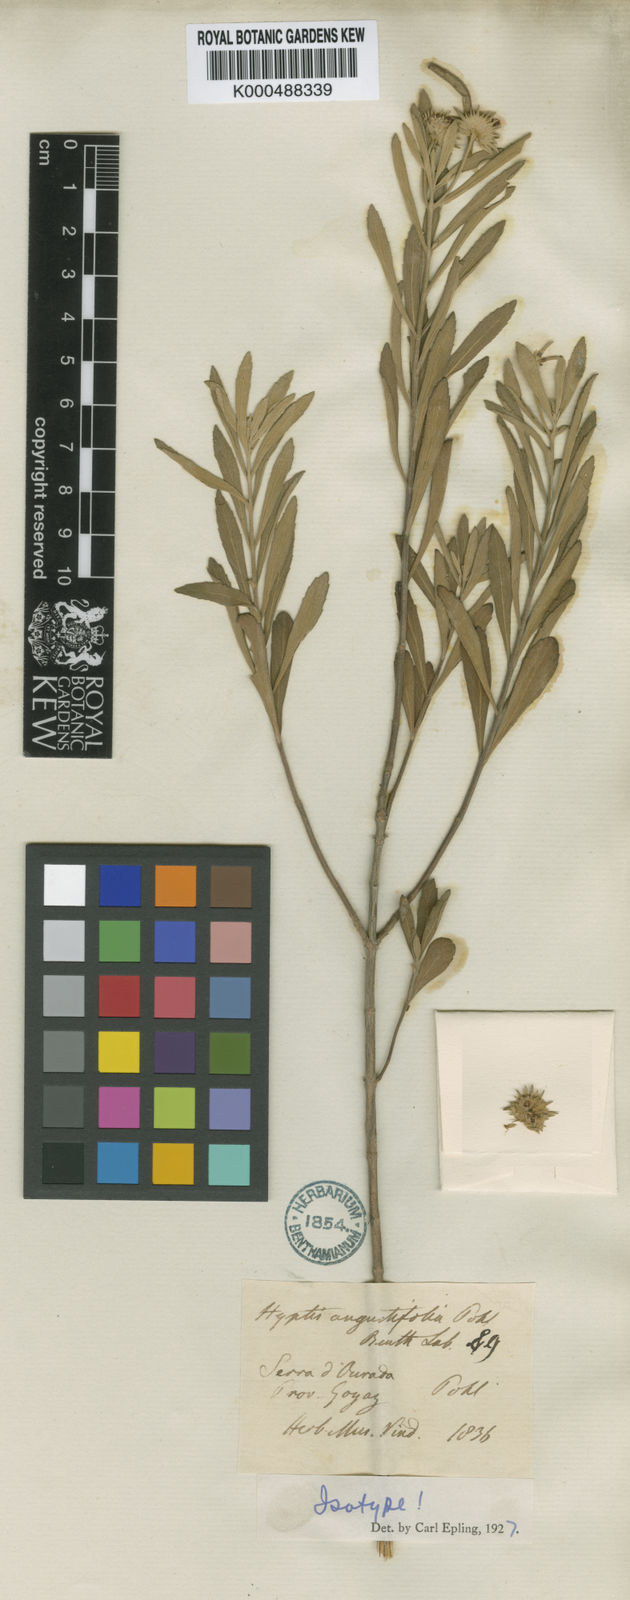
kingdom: Plantae
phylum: Tracheophyta
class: Magnoliopsida
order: Lamiales
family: Lamiaceae
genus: Hyptis
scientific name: Hyptis angustifolia
